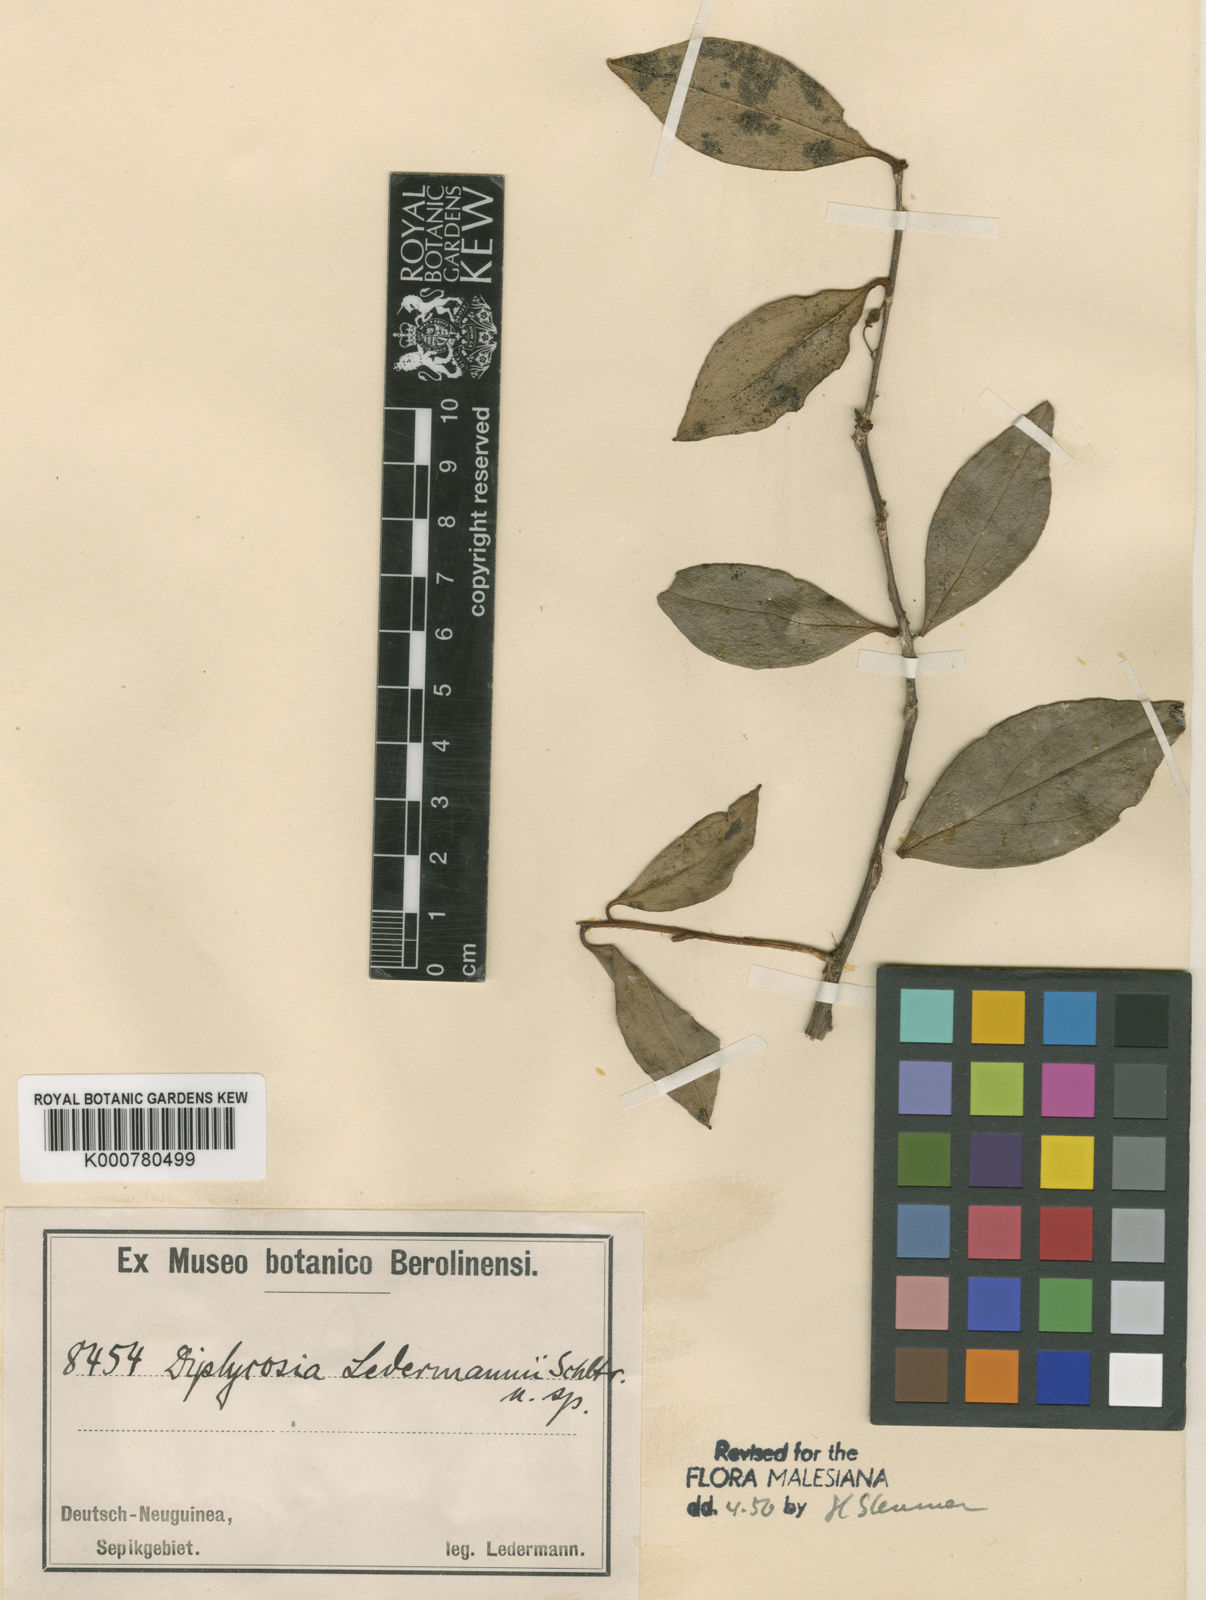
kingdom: Plantae
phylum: Tracheophyta
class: Magnoliopsida
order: Ericales
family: Ericaceae
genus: Gaultheria
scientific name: Gaultheria ledermannii
